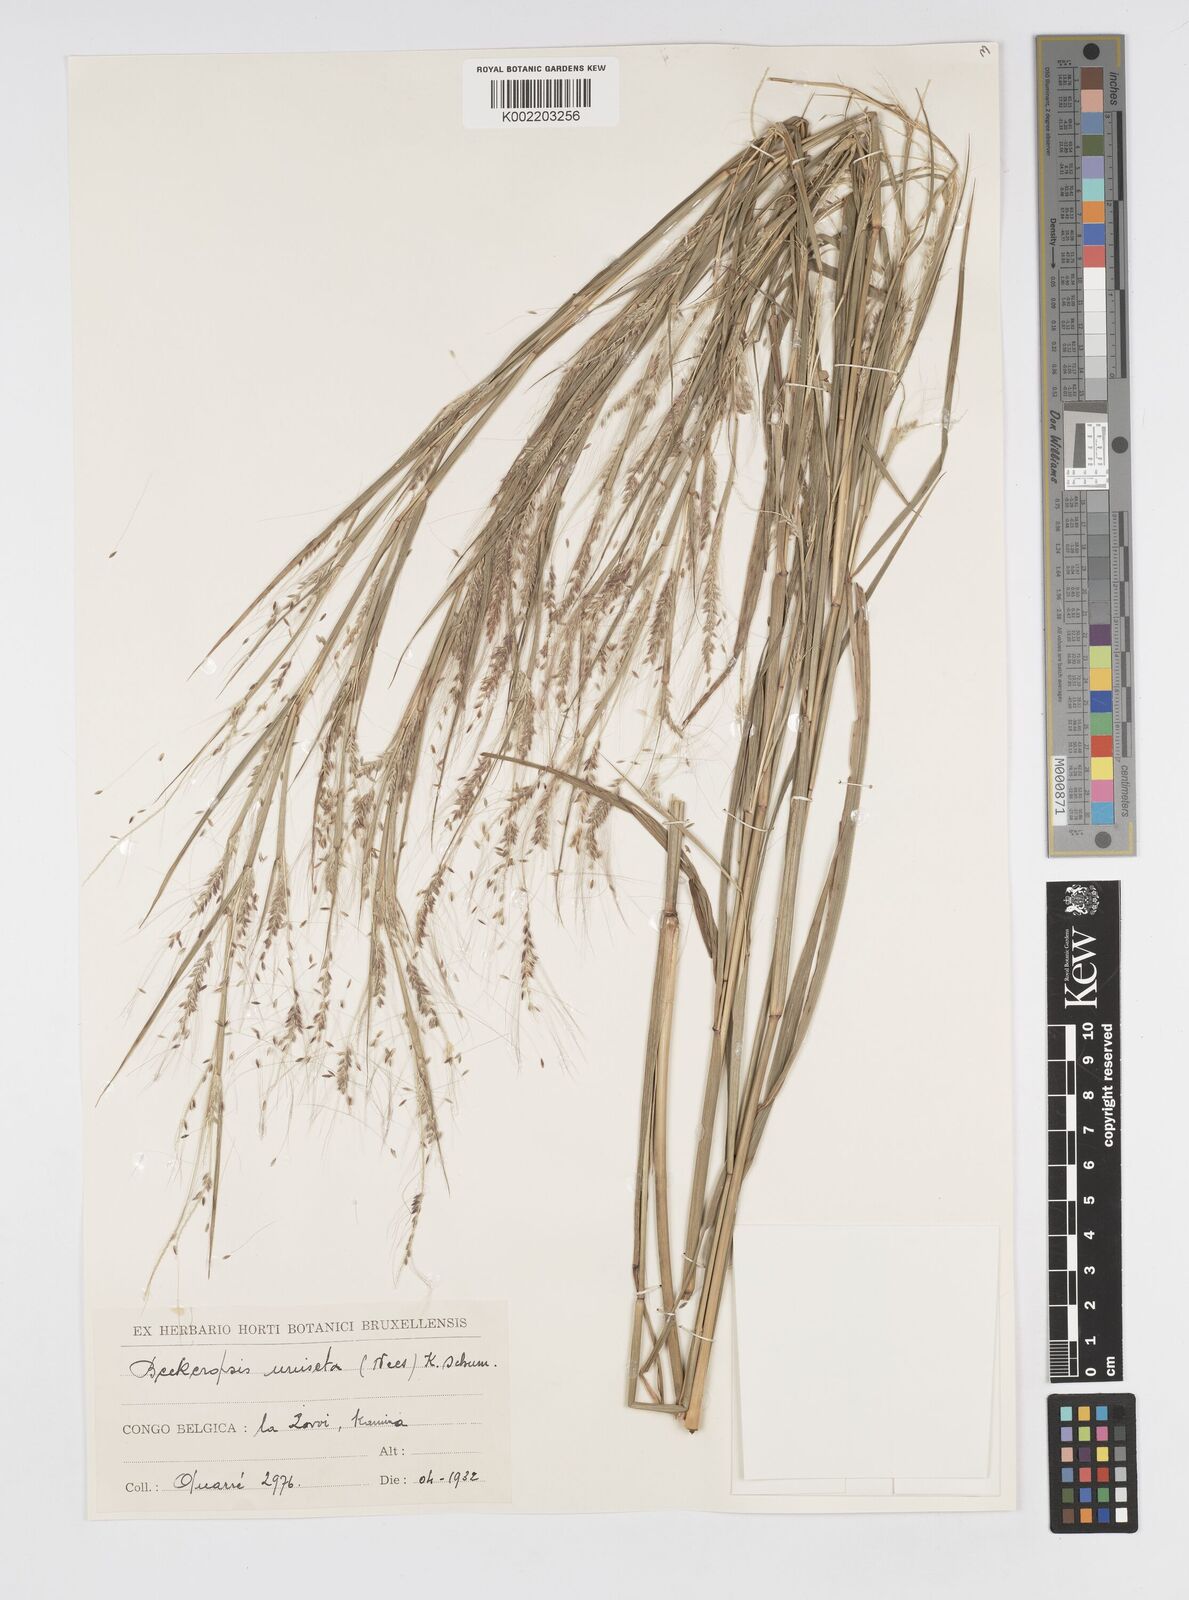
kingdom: Plantae
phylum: Tracheophyta
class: Liliopsida
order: Poales
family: Poaceae
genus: Cenchrus
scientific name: Cenchrus unisetus
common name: Natal grass
